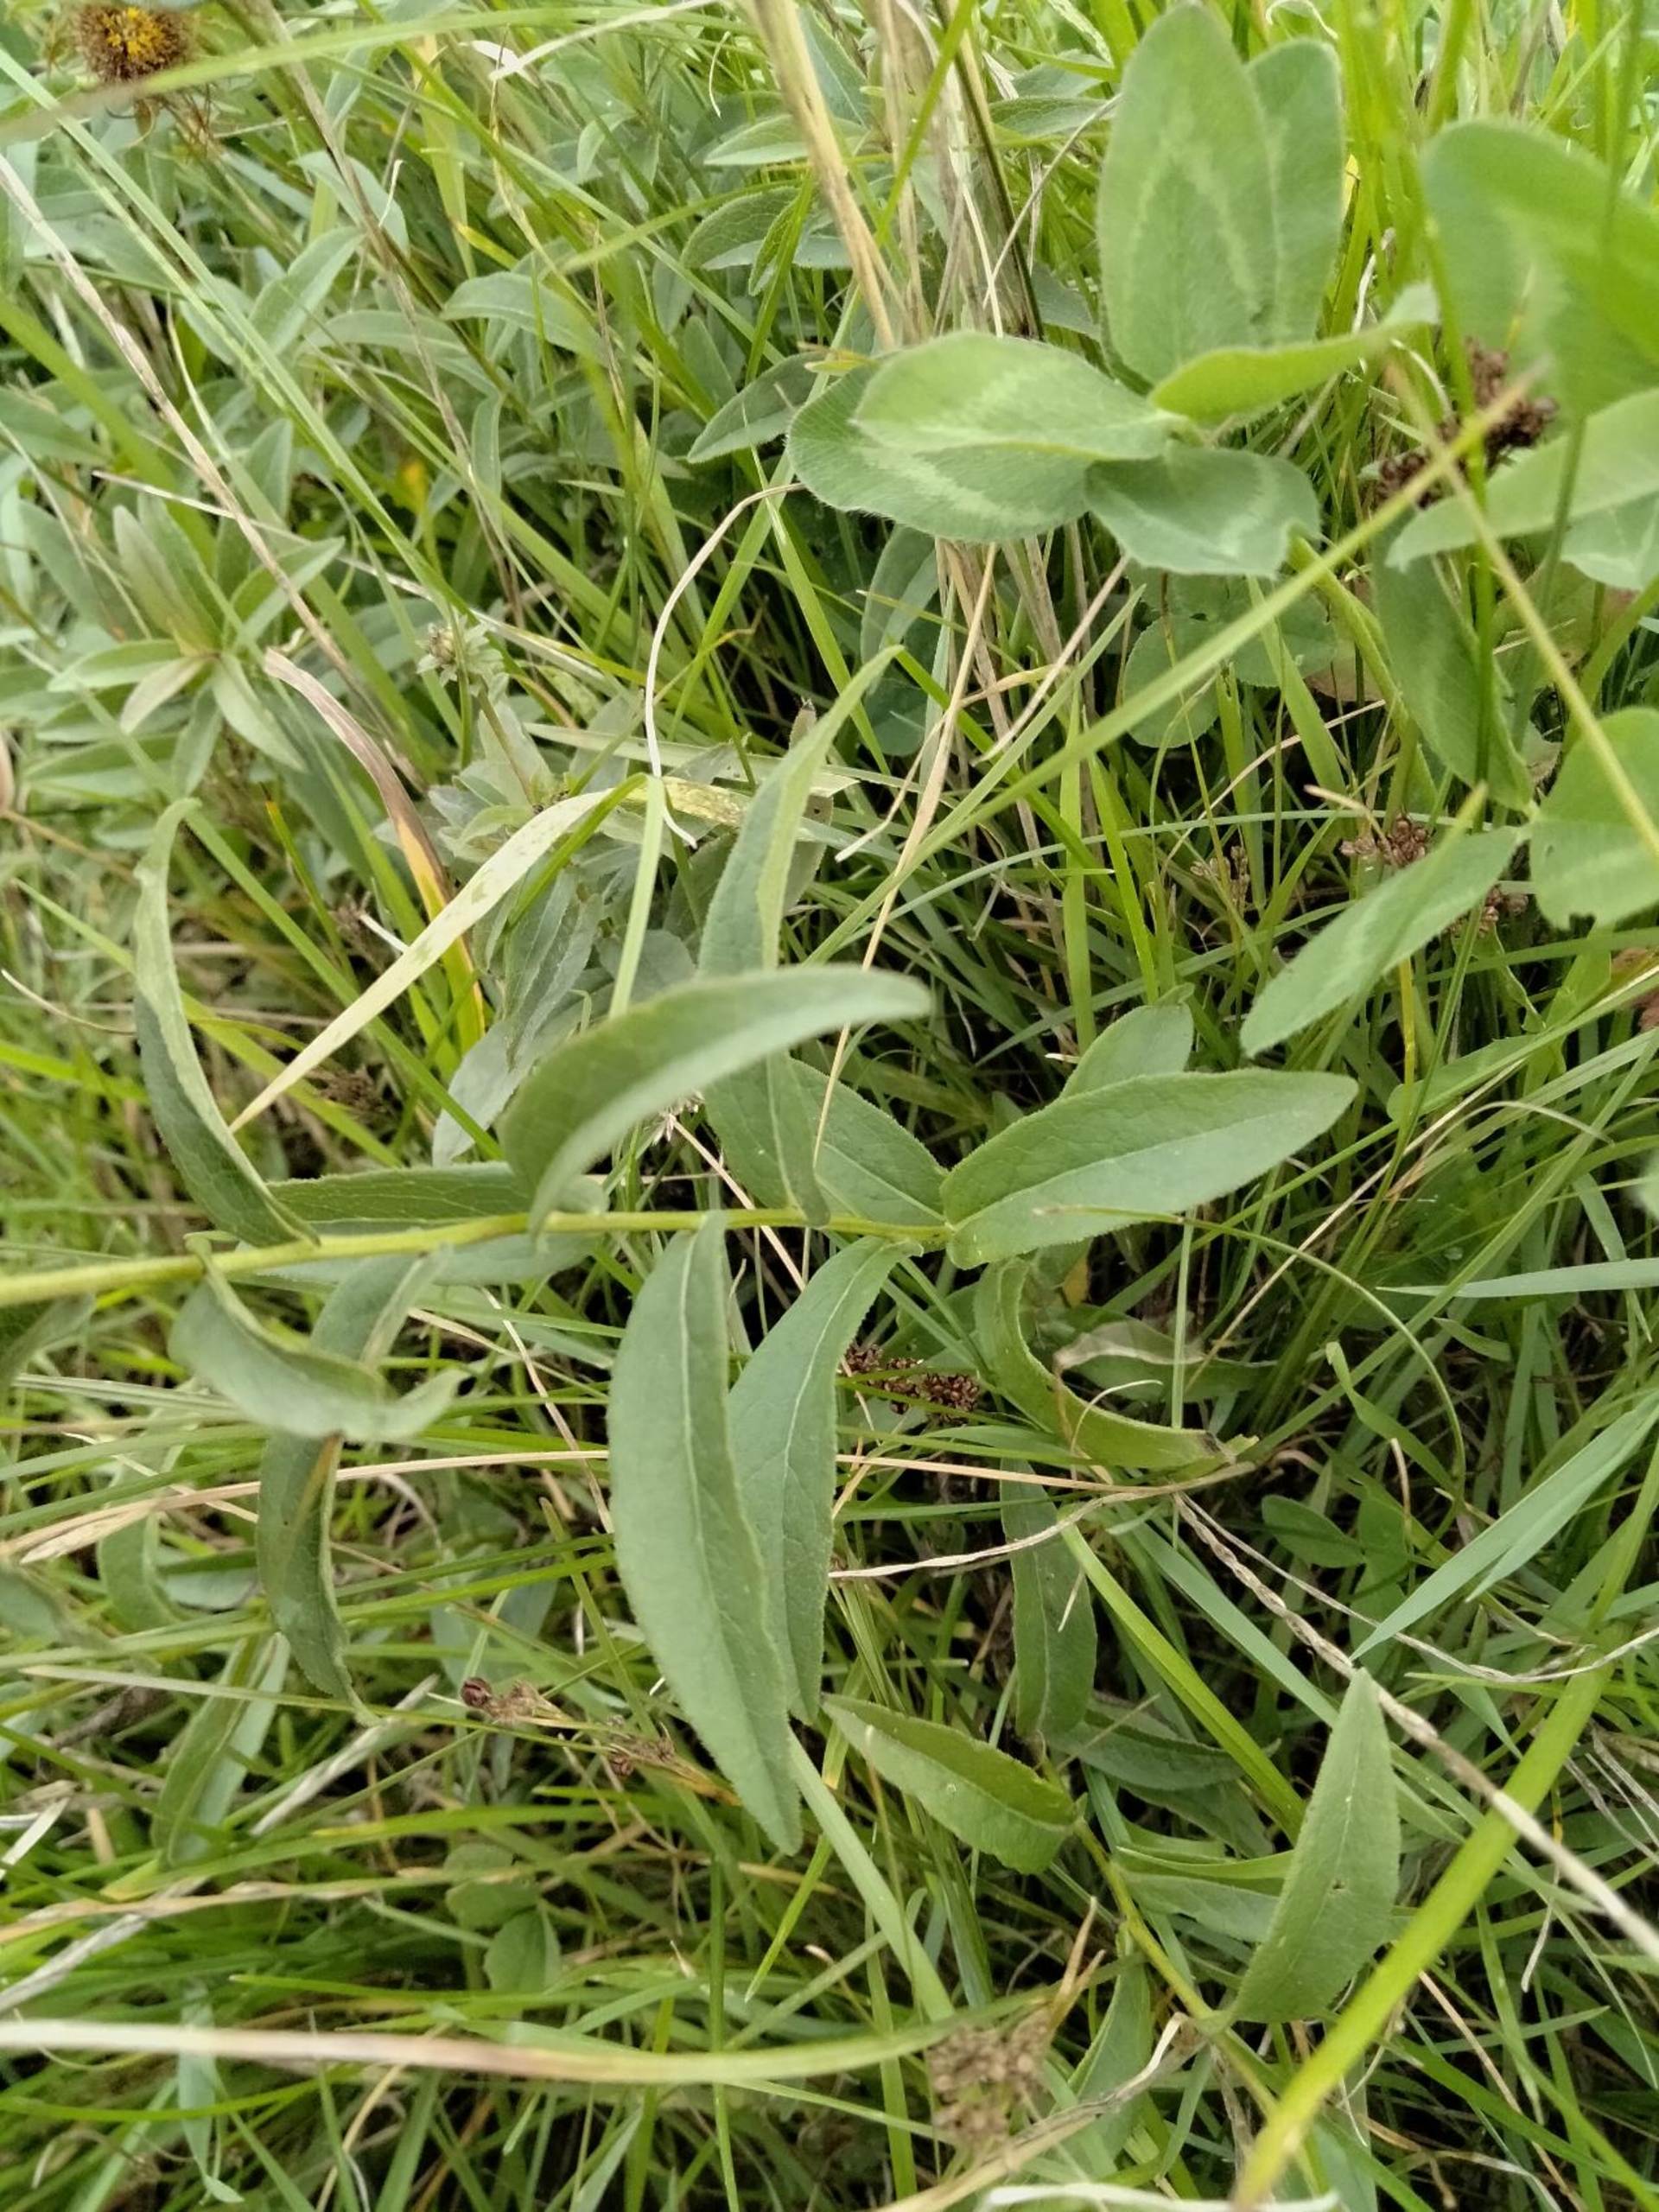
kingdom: Plantae
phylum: Tracheophyta
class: Magnoliopsida
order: Asterales
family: Asteraceae
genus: Pentanema
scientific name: Pentanema salicinum
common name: Pile-alant
